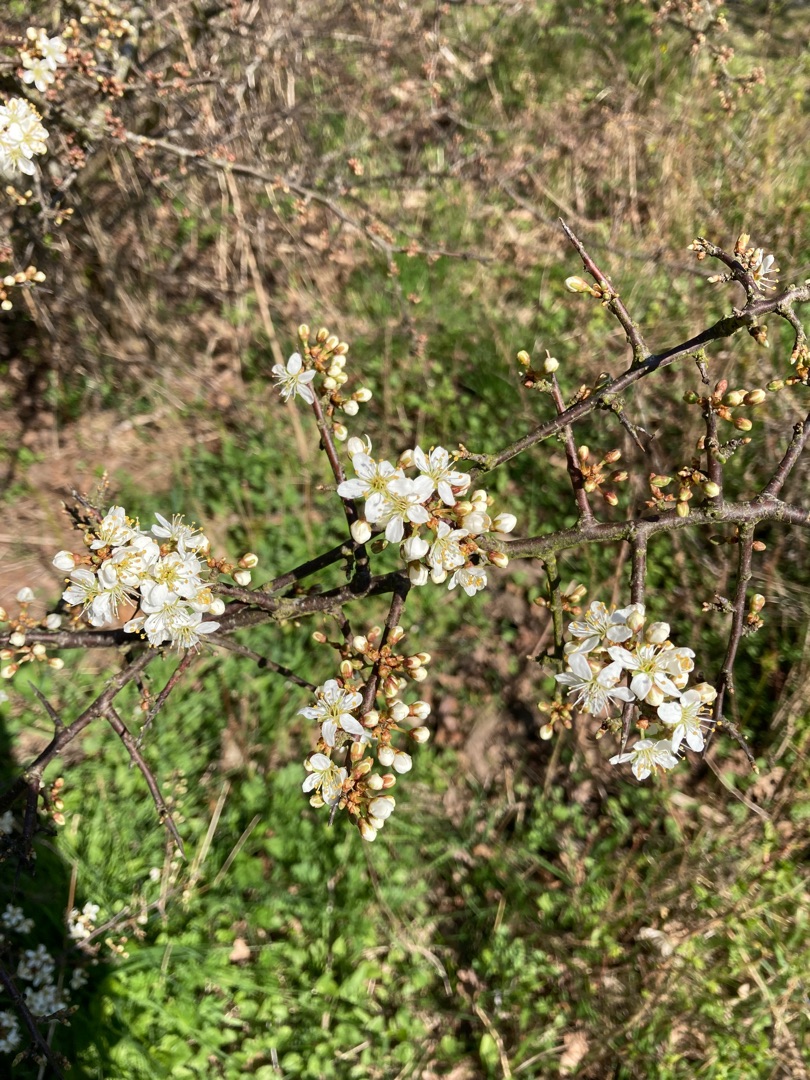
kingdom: Plantae
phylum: Tracheophyta
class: Magnoliopsida
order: Rosales
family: Rosaceae
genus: Prunus
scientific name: Prunus spinosa
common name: Slåen
